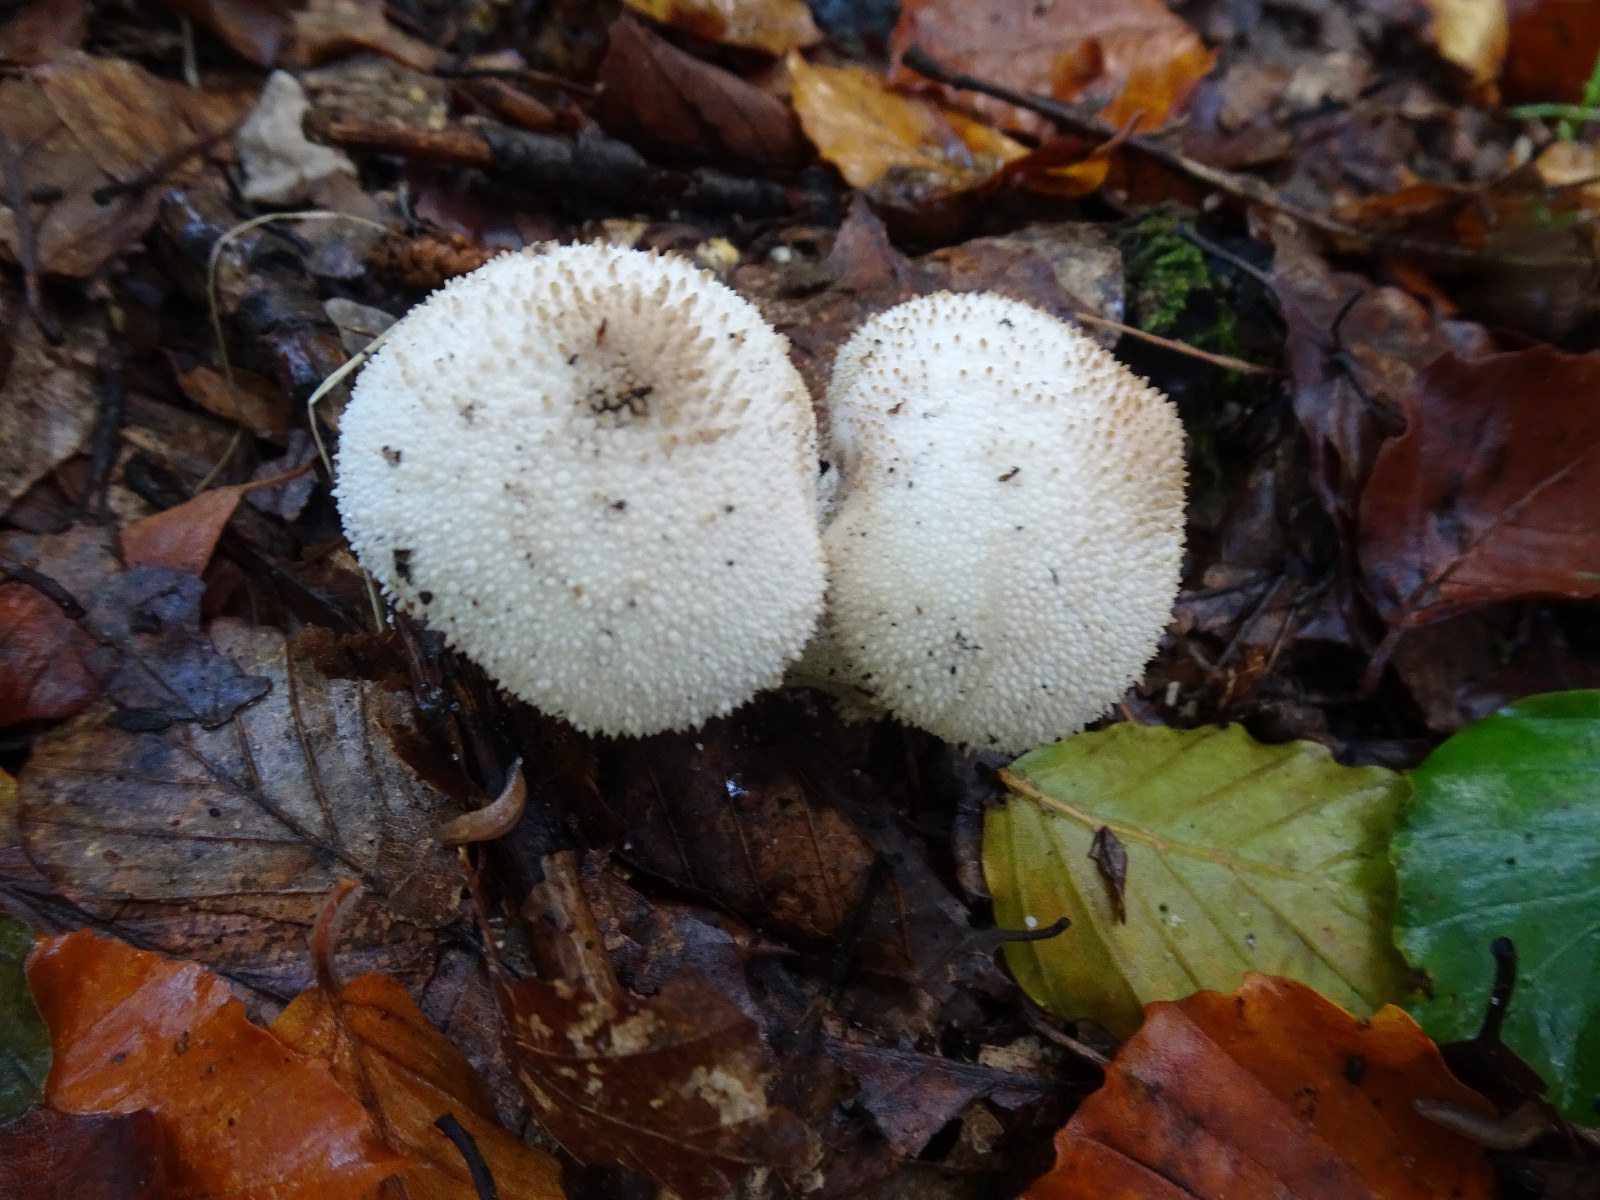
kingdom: Fungi
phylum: Basidiomycota
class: Agaricomycetes
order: Agaricales
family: Lycoperdaceae
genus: Lycoperdon
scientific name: Lycoperdon perlatum
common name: krystal-støvbold
